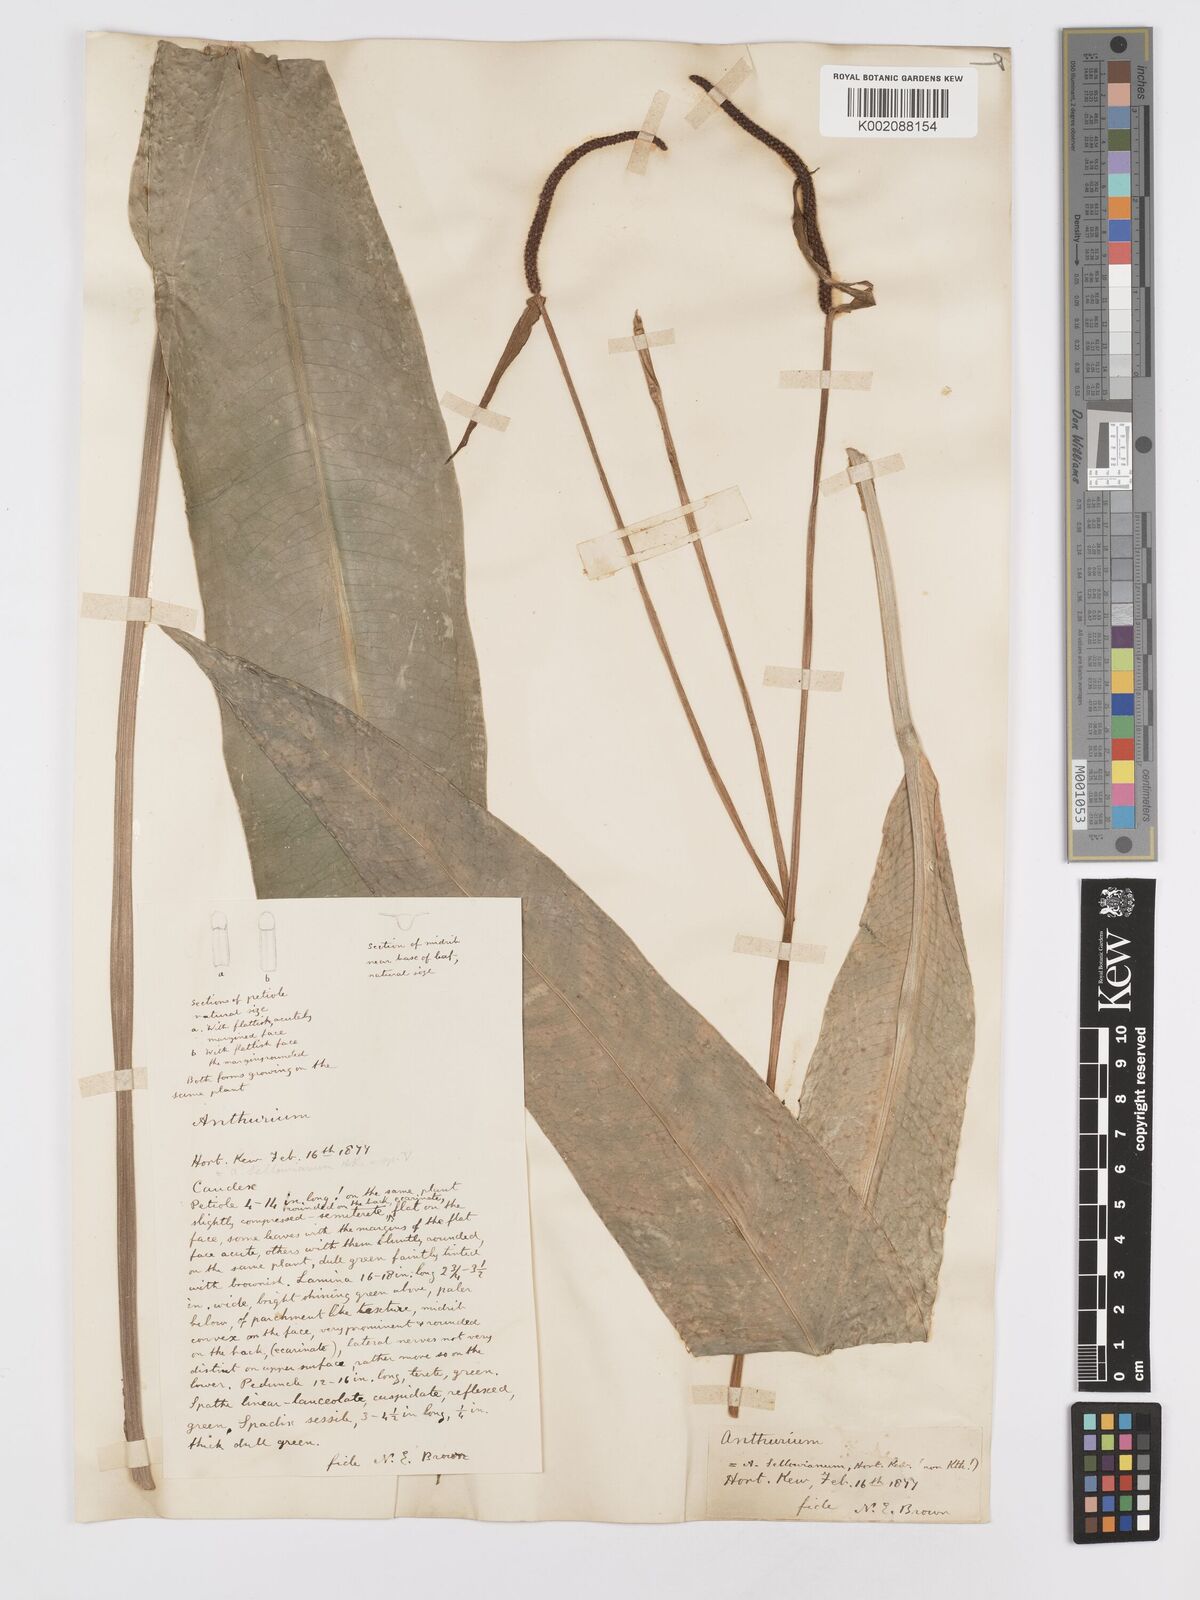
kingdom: Plantae
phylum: Tracheophyta
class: Liliopsida
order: Alismatales
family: Araceae
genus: Anthurium
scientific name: Anthurium
